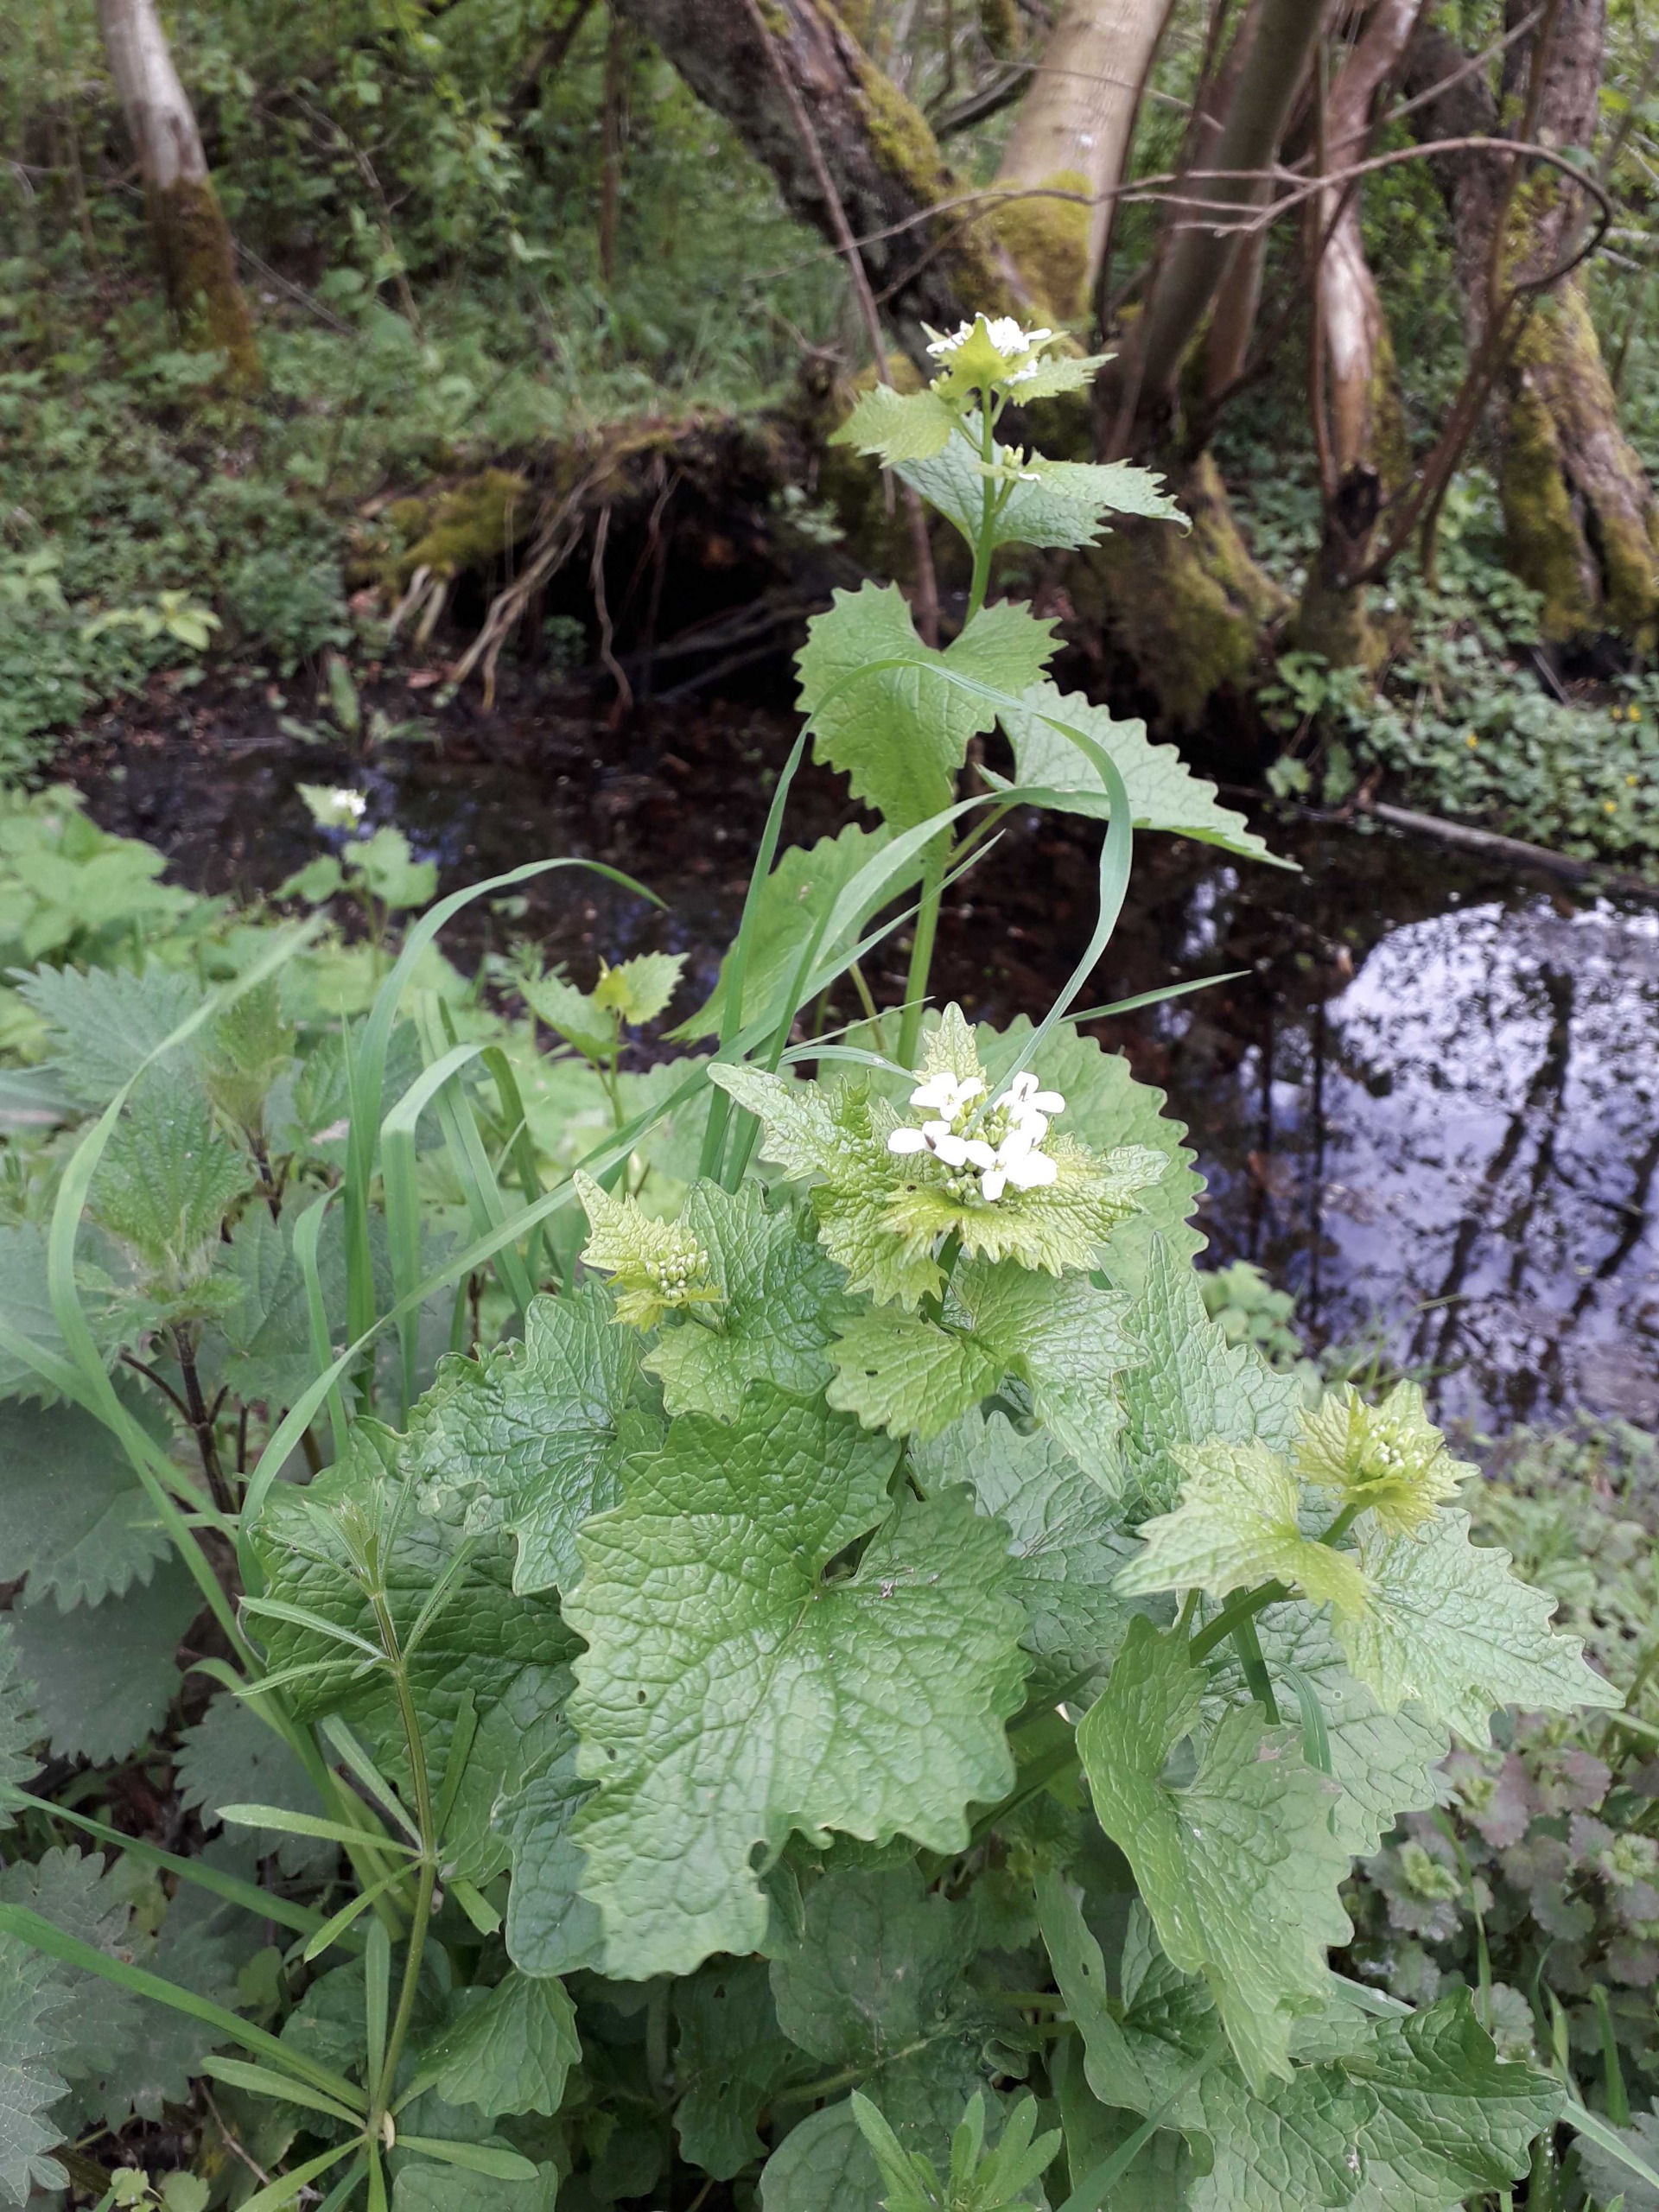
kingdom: Plantae
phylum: Tracheophyta
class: Magnoliopsida
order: Brassicales
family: Brassicaceae
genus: Alliaria
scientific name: Alliaria petiolata
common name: Løgkarse
